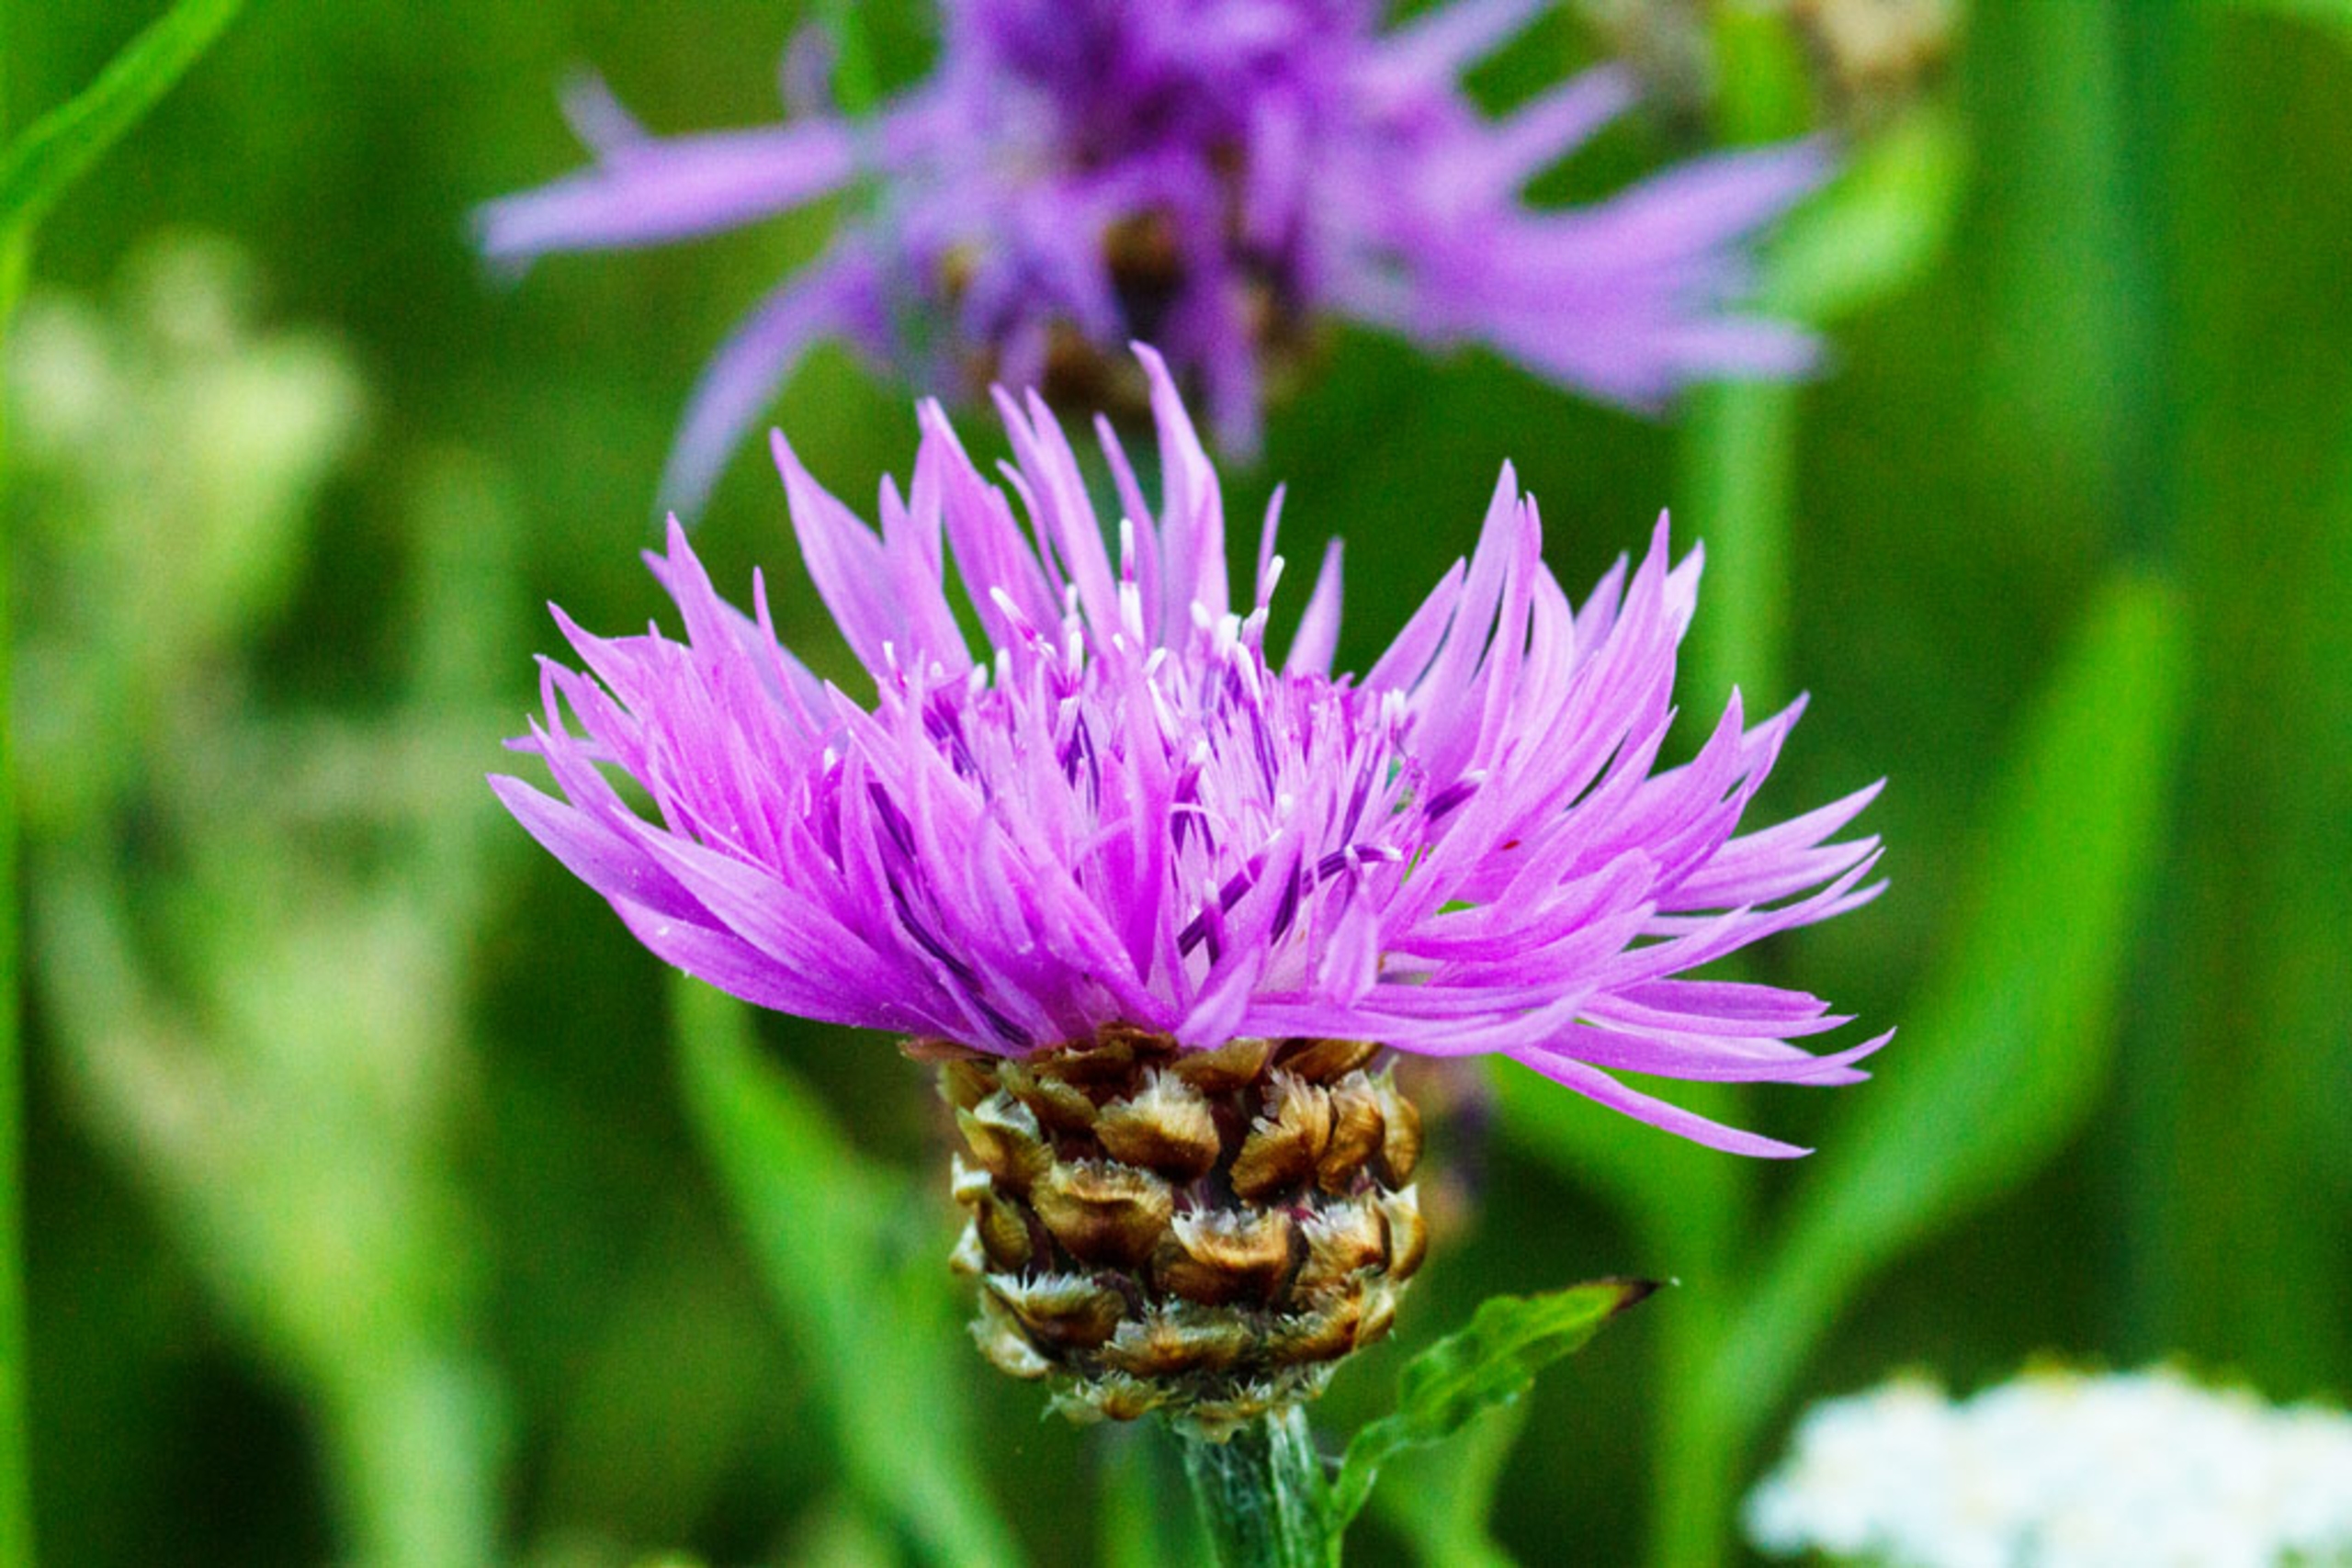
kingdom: Plantae
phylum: Tracheophyta
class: Magnoliopsida
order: Asterales
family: Asteraceae
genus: Centaurea
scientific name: Centaurea jacea
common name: Almindelig knopurt
